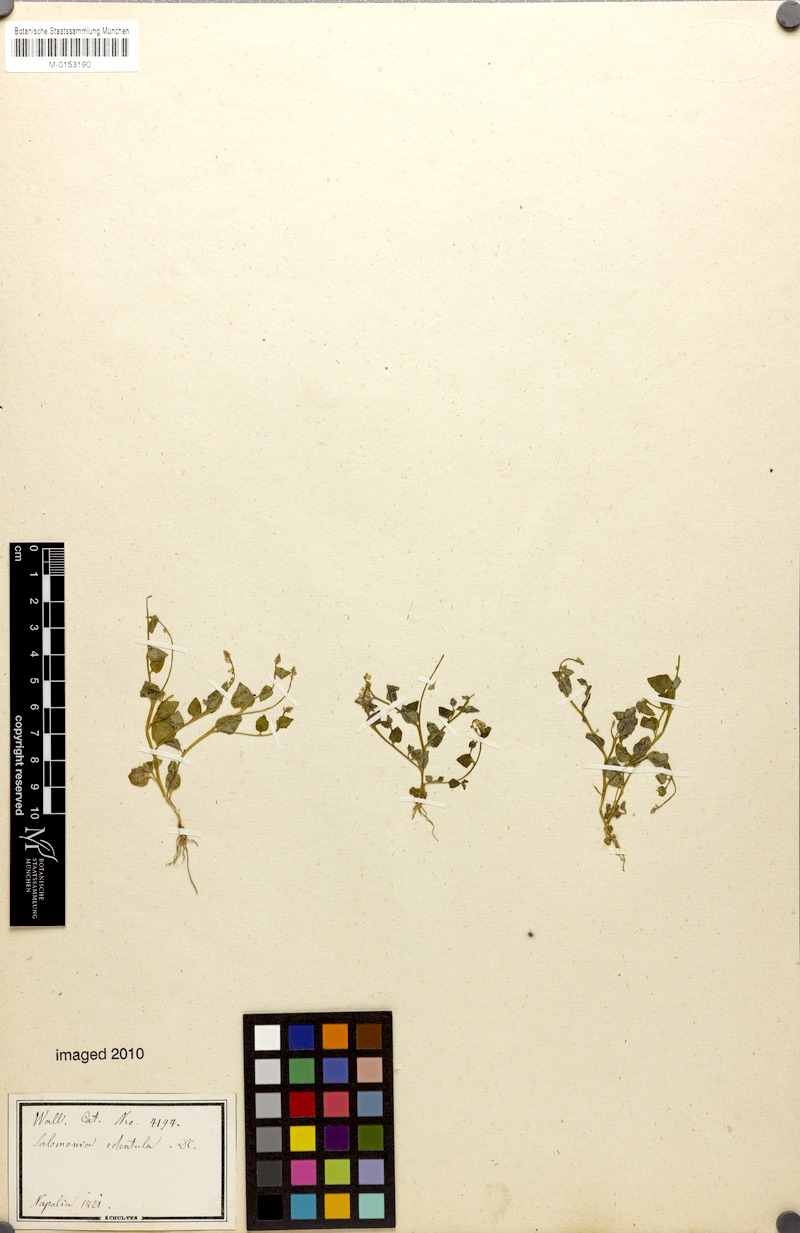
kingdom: Plantae
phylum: Tracheophyta
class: Magnoliopsida
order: Fabales
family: Polygalaceae
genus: Salomonia
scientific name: Salomonia cantoniensis
